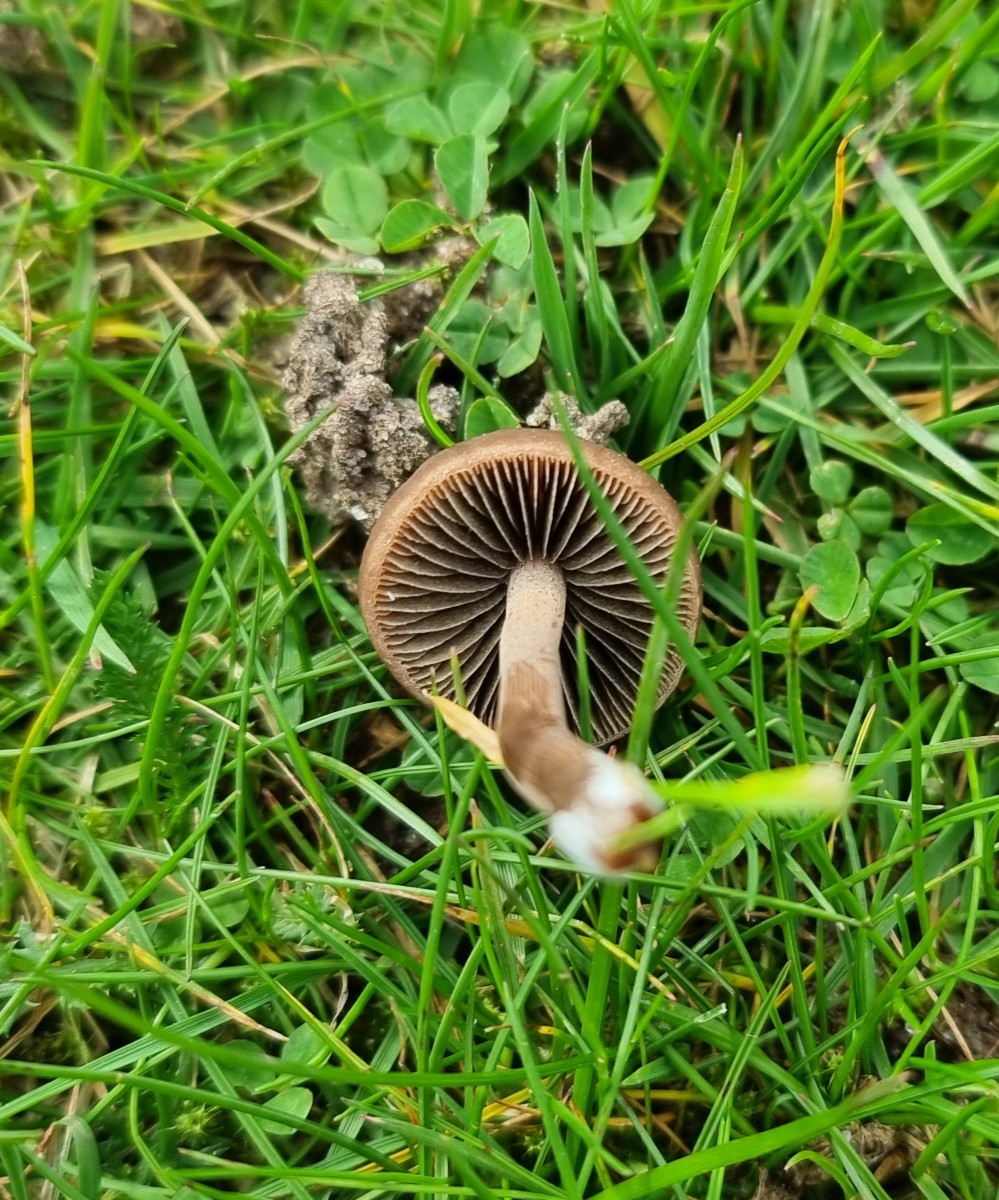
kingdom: Fungi
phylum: Basidiomycota
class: Agaricomycetes
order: Agaricales
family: Bolbitiaceae
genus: Panaeolus
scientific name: Panaeolus fimicola
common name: tidlig glanshat
